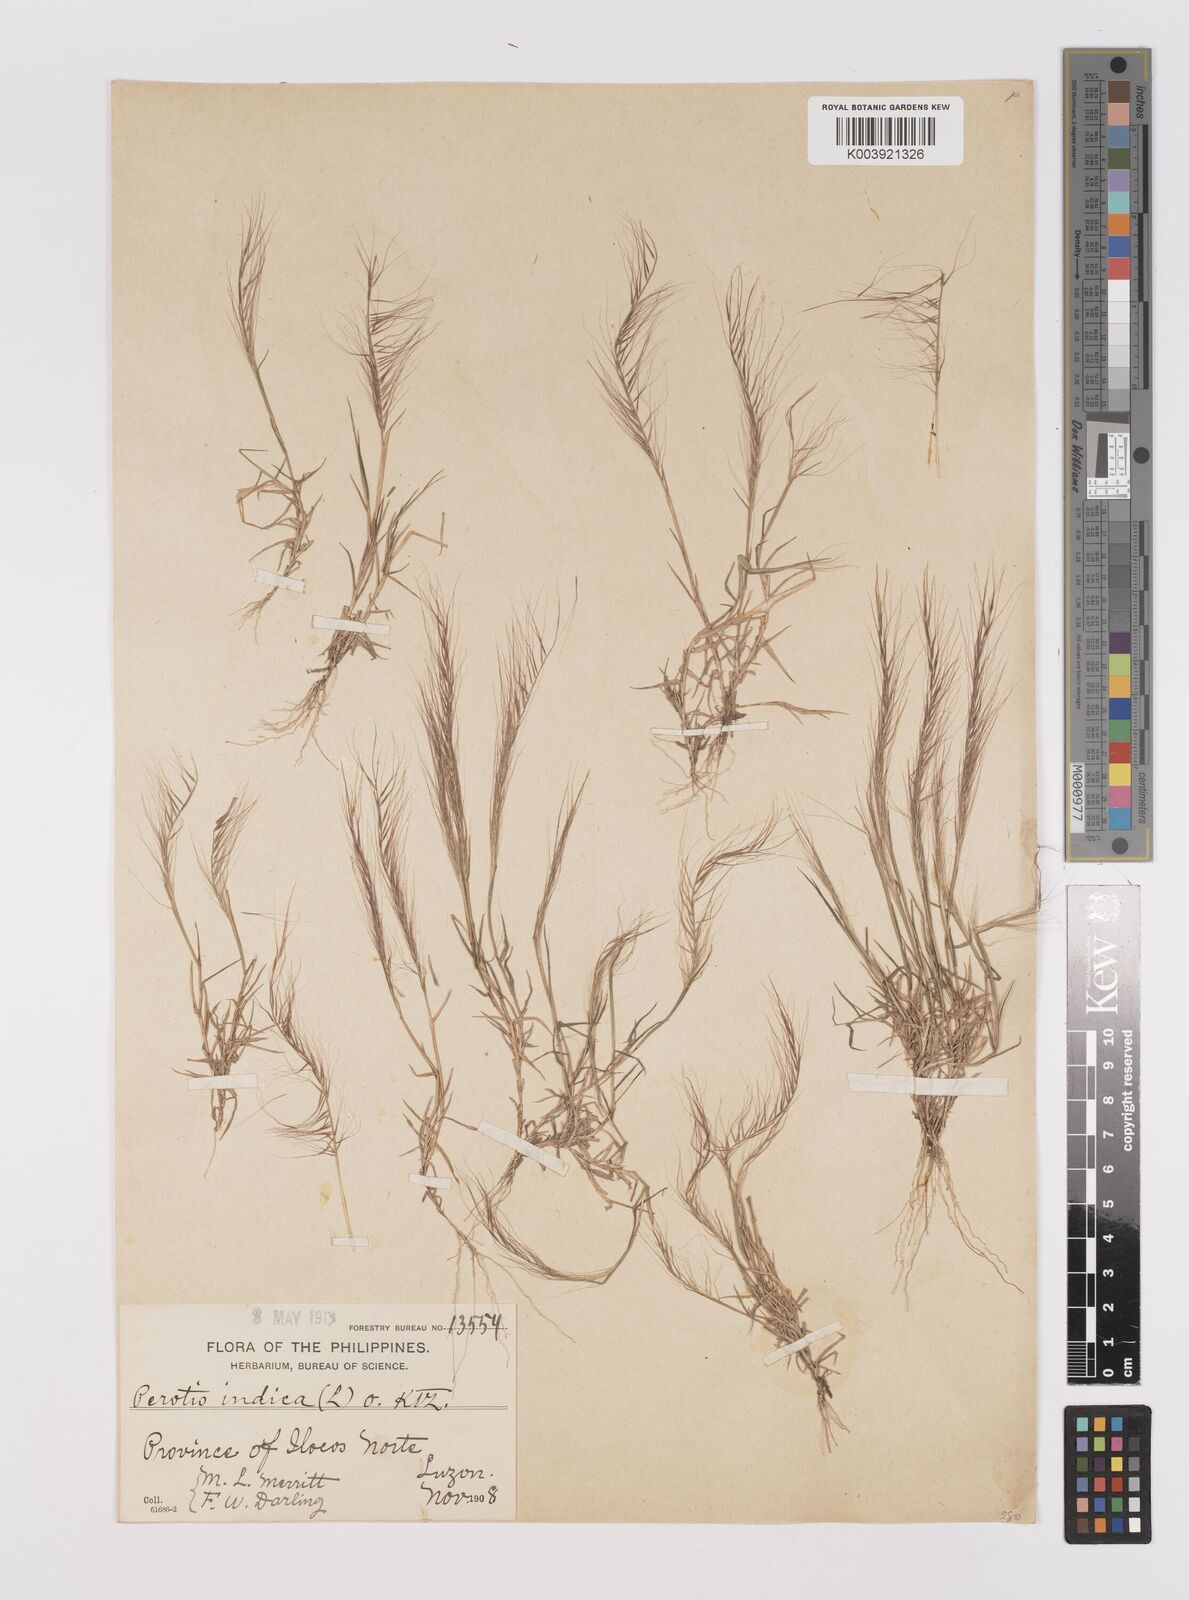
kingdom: Plantae
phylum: Tracheophyta
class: Liliopsida
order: Poales
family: Poaceae
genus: Perotis
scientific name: Perotis rara
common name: Comet grass
